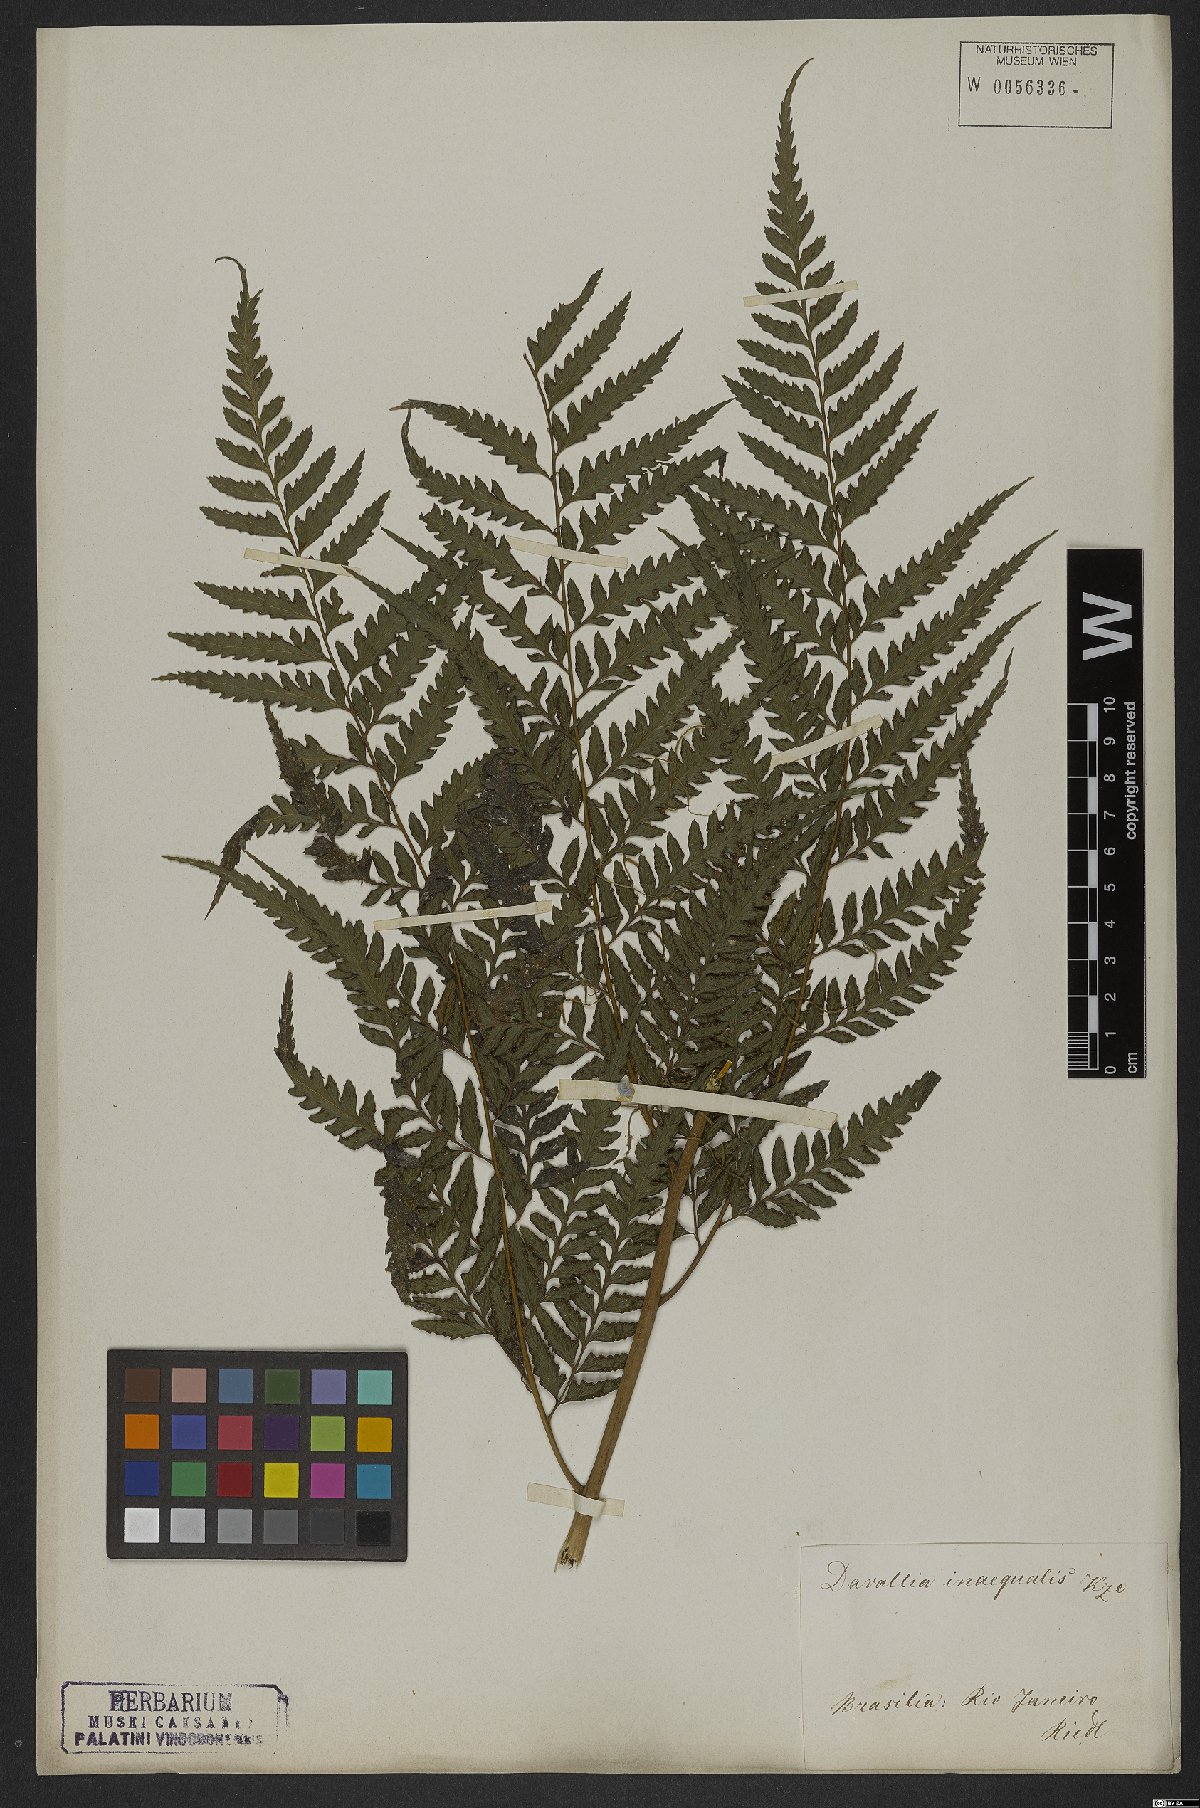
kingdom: Plantae
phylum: Tracheophyta
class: Polypodiopsida
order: Polypodiales
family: Saccolomataceae
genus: Saccoloma
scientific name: Saccoloma inaequale
